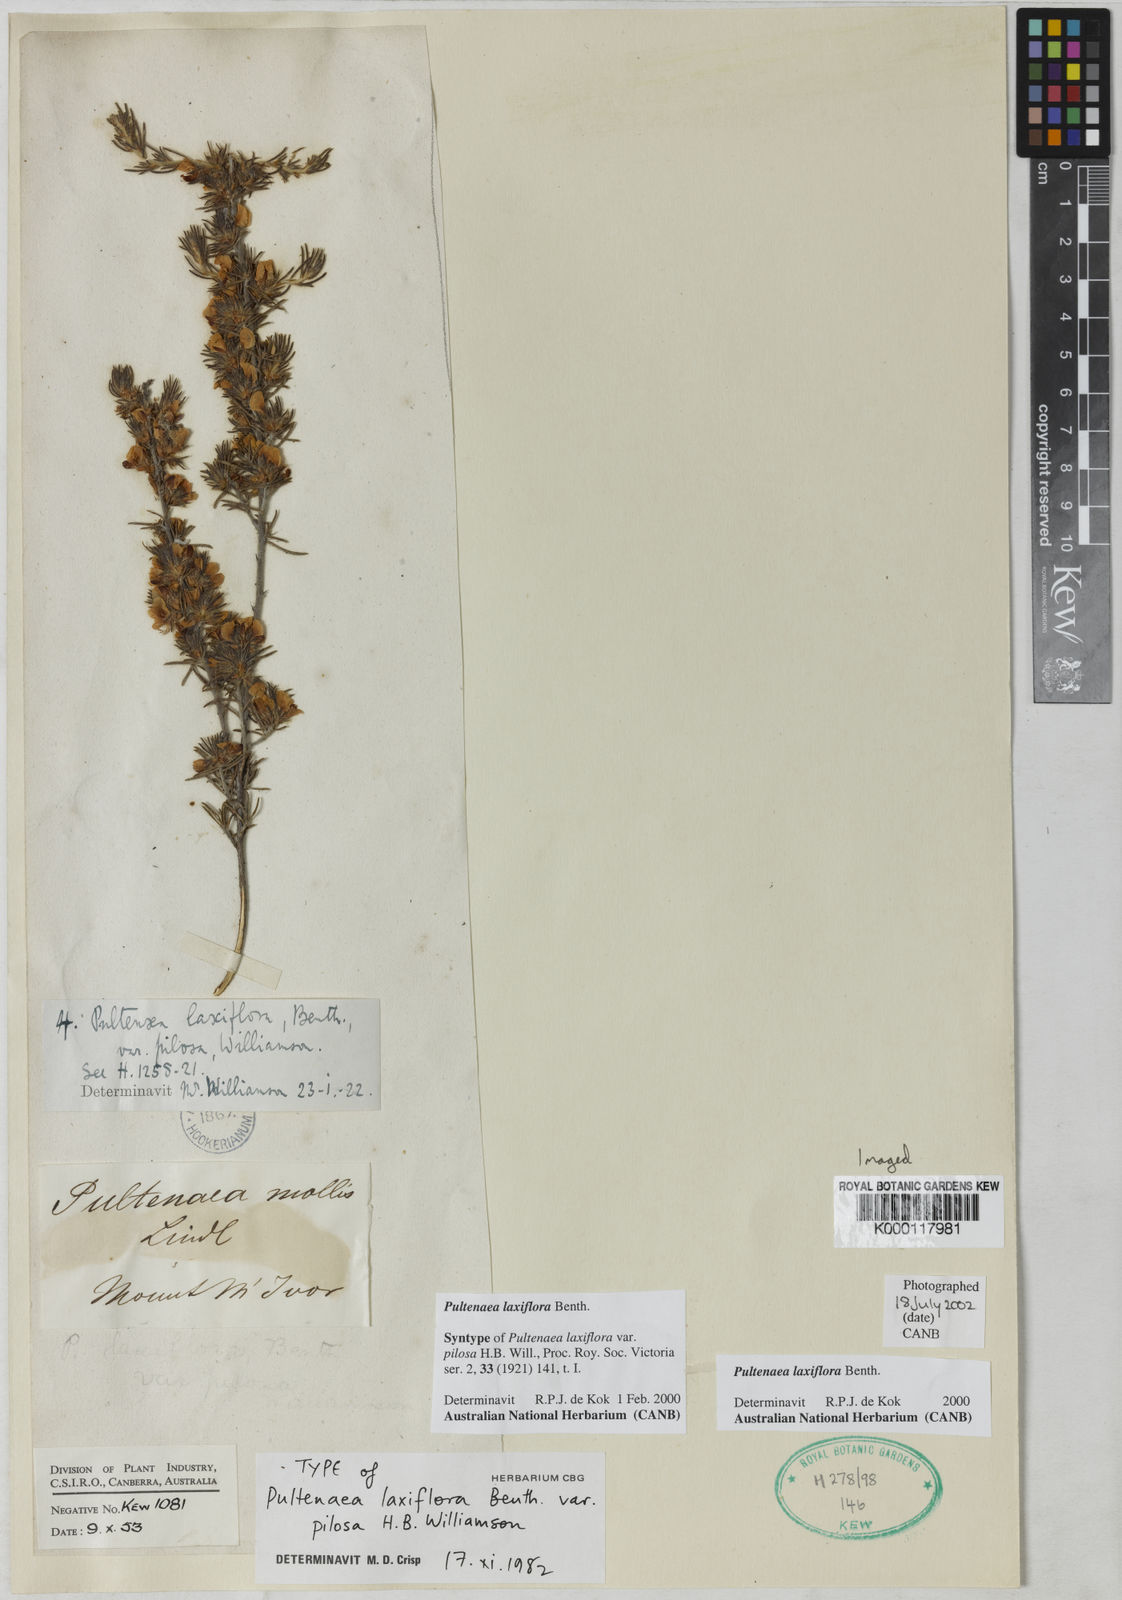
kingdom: Plantae
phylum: Tracheophyta
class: Magnoliopsida
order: Fabales
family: Fabaceae
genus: Pultenaea
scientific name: Pultenaea laxiflora
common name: Loose-flower bush-pea
